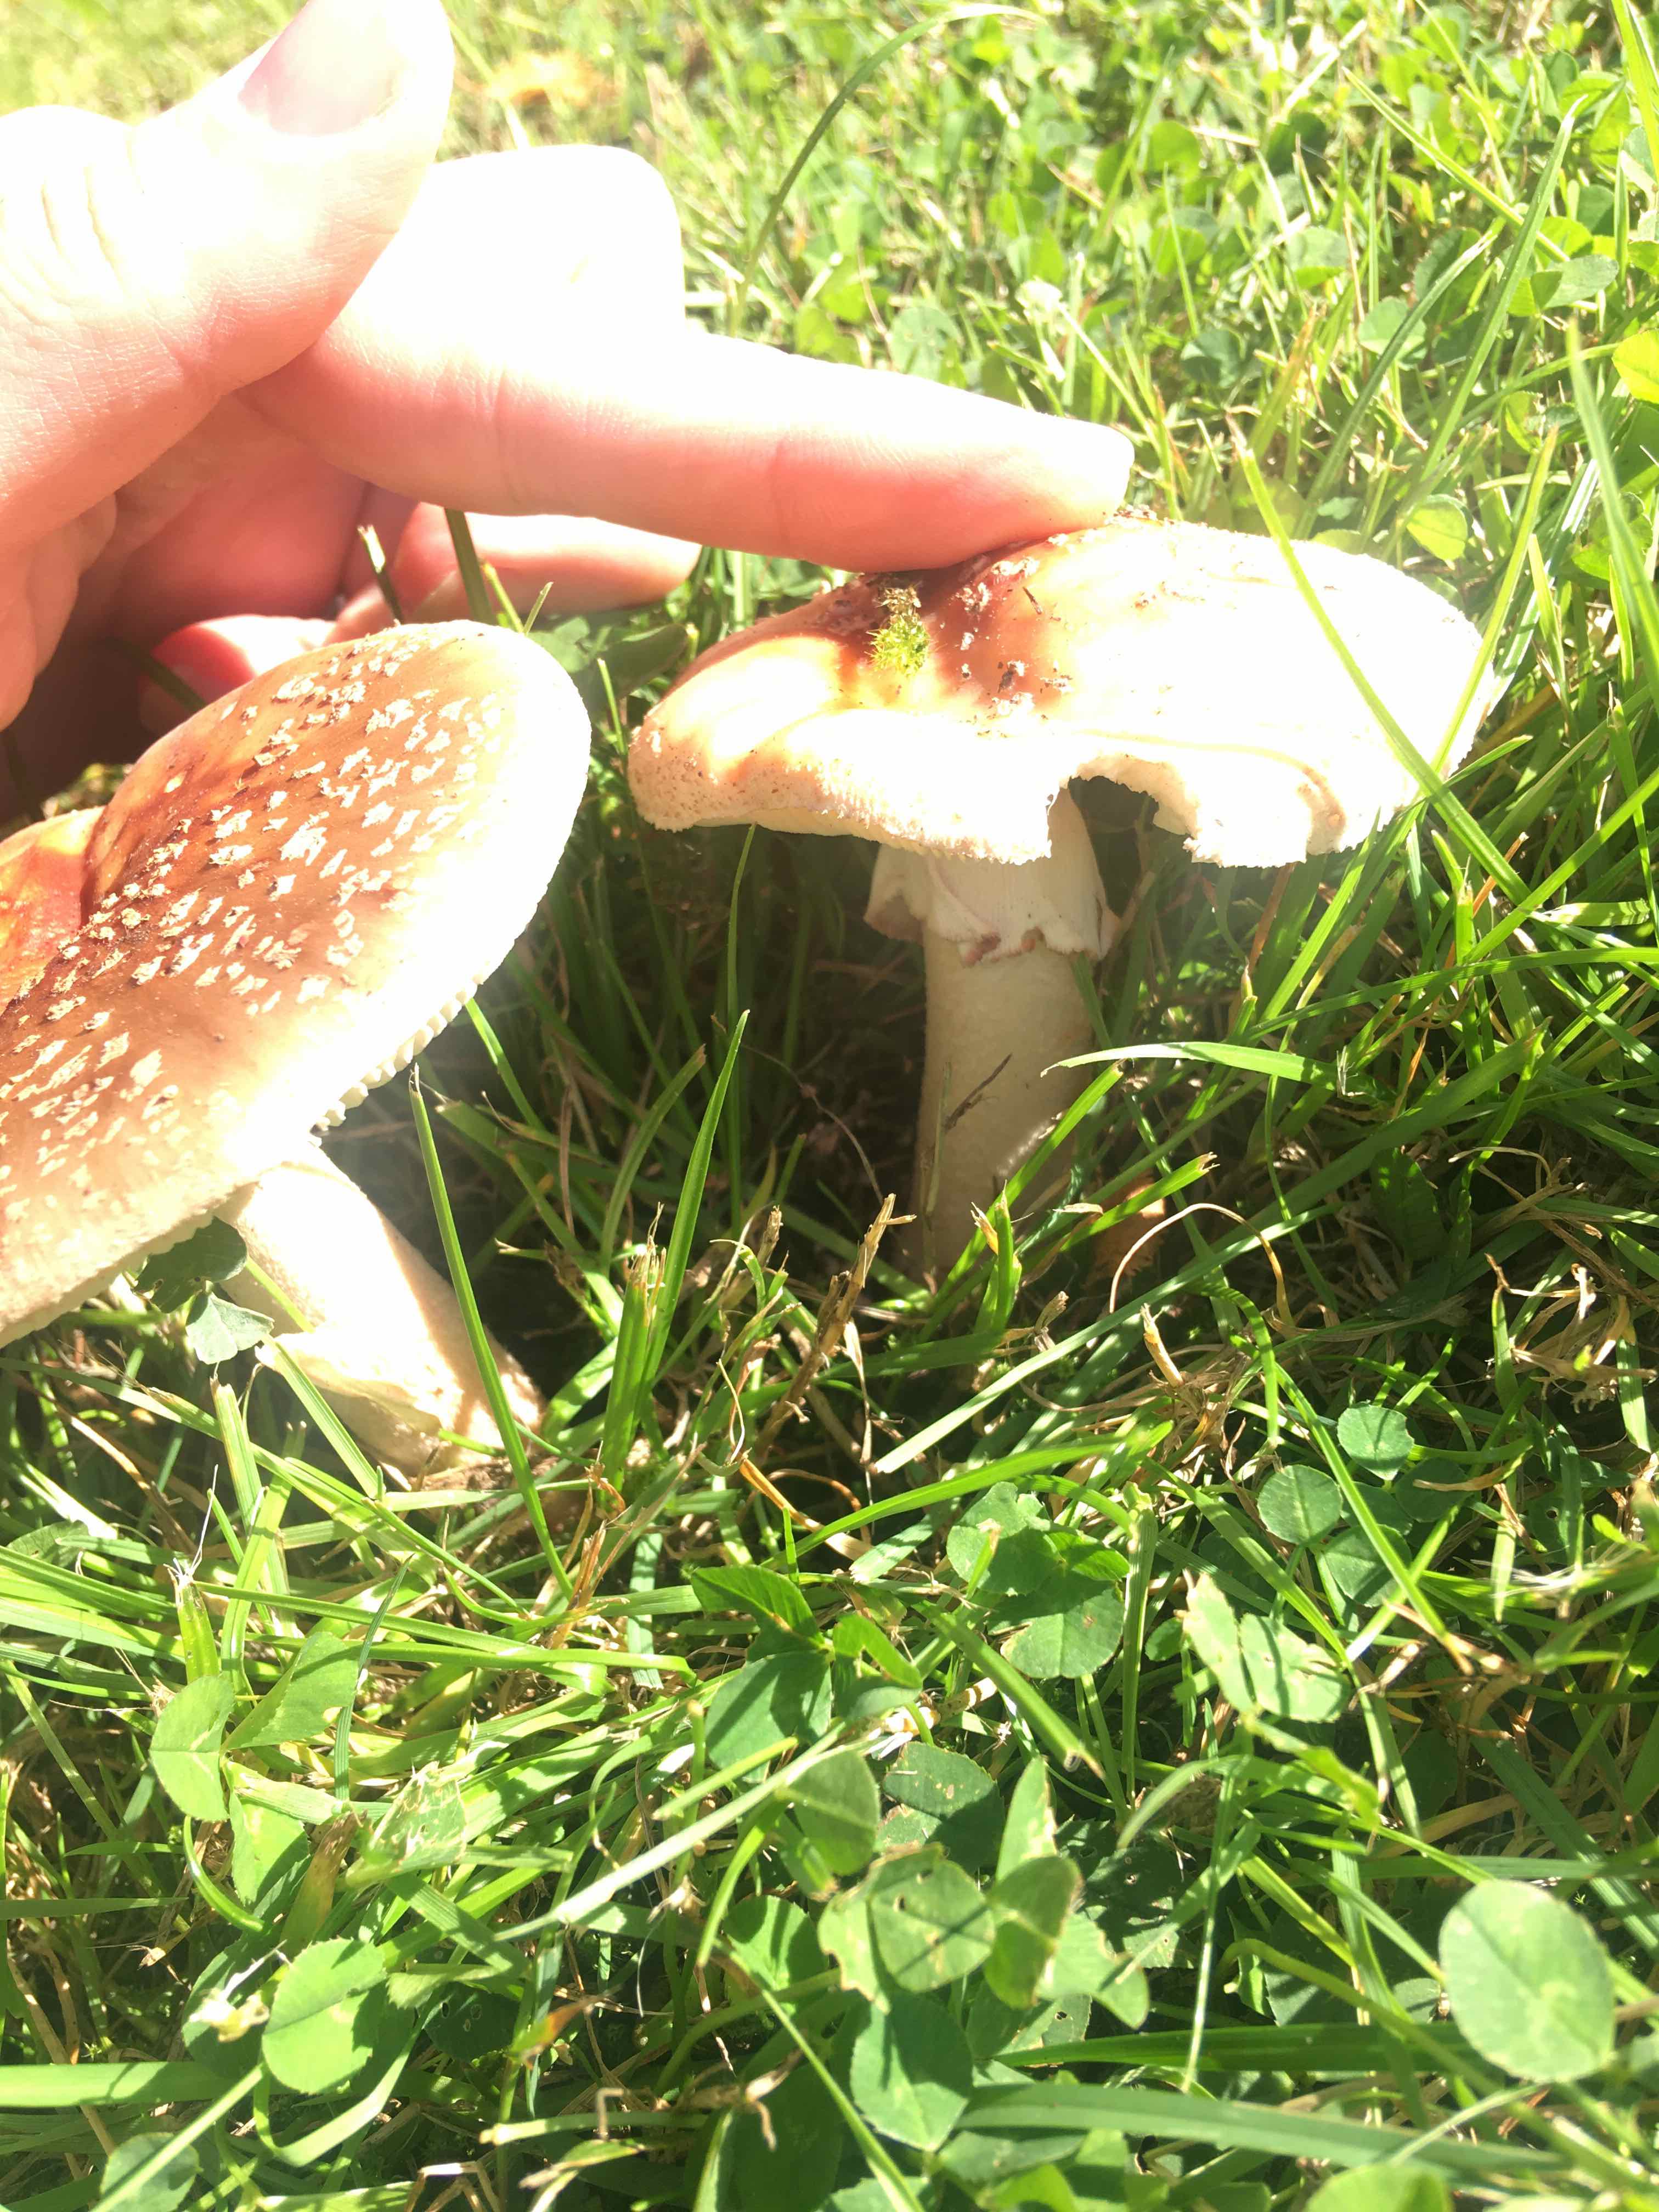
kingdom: Fungi
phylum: Basidiomycota
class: Agaricomycetes
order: Agaricales
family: Amanitaceae
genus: Amanita
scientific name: Amanita rubescens
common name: rødmende fluesvamp
